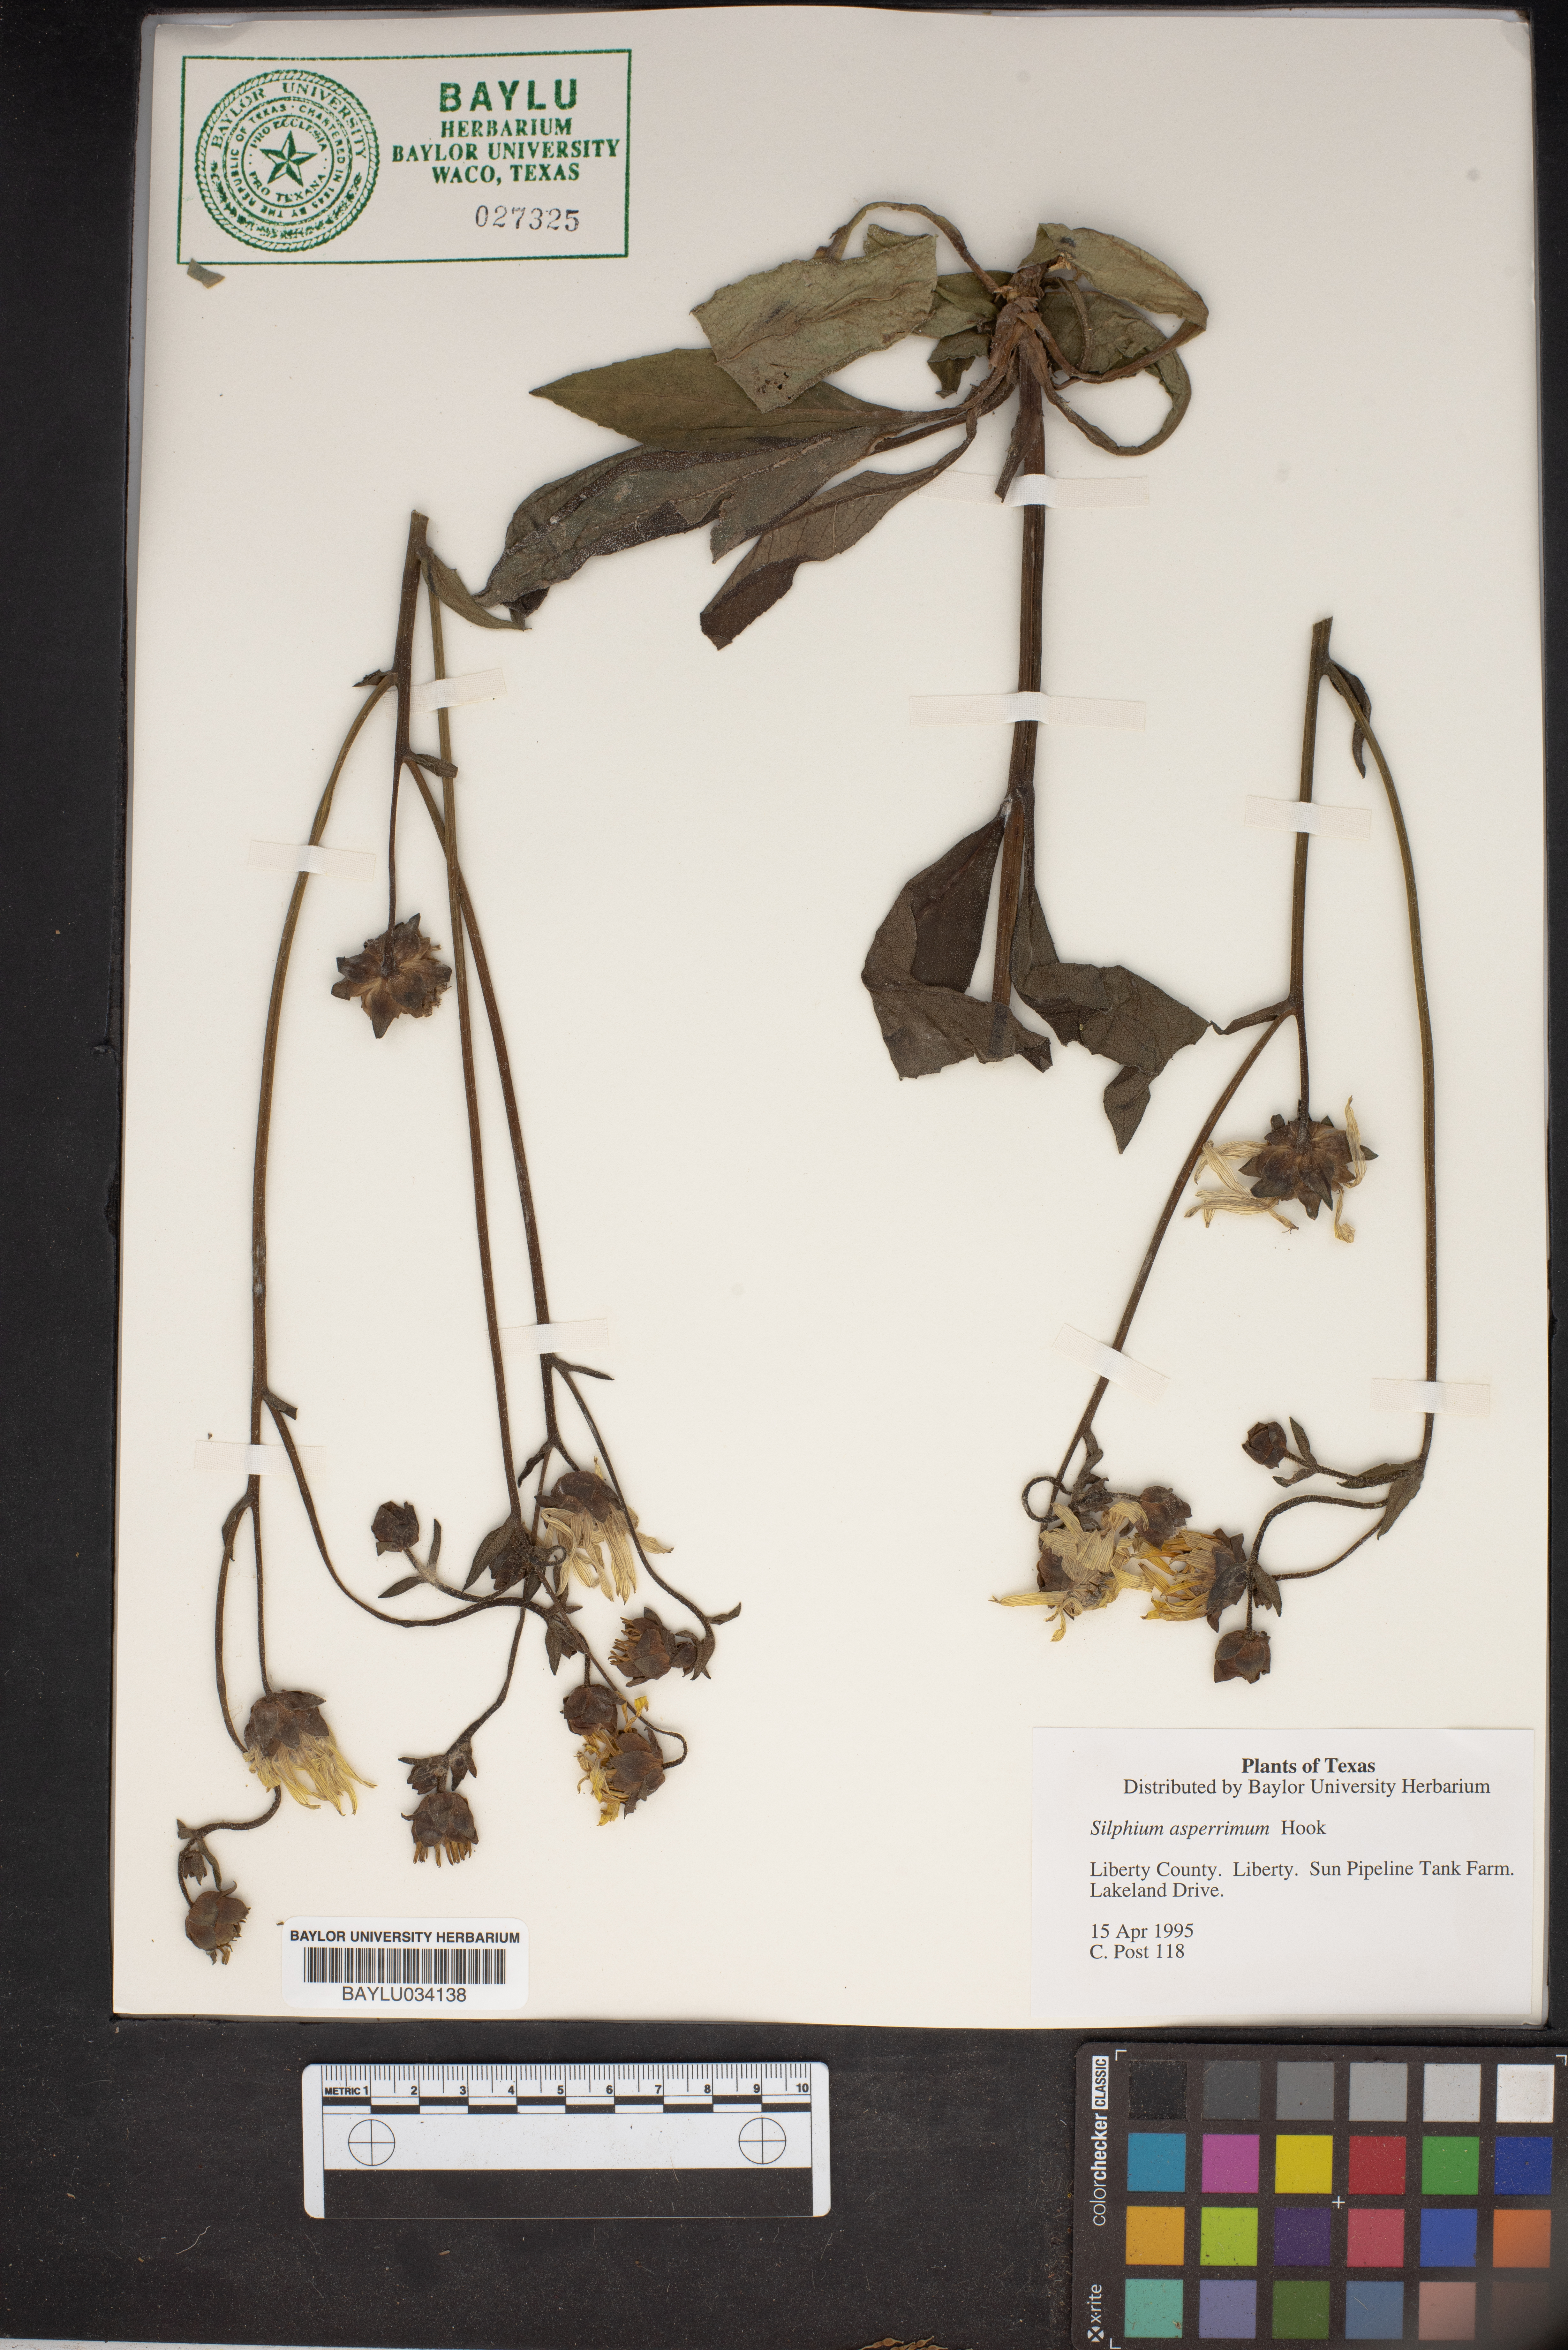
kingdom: Plantae
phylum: Tracheophyta
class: Magnoliopsida
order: Asterales
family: Asteraceae
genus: Silphium
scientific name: Silphium asperrimum
